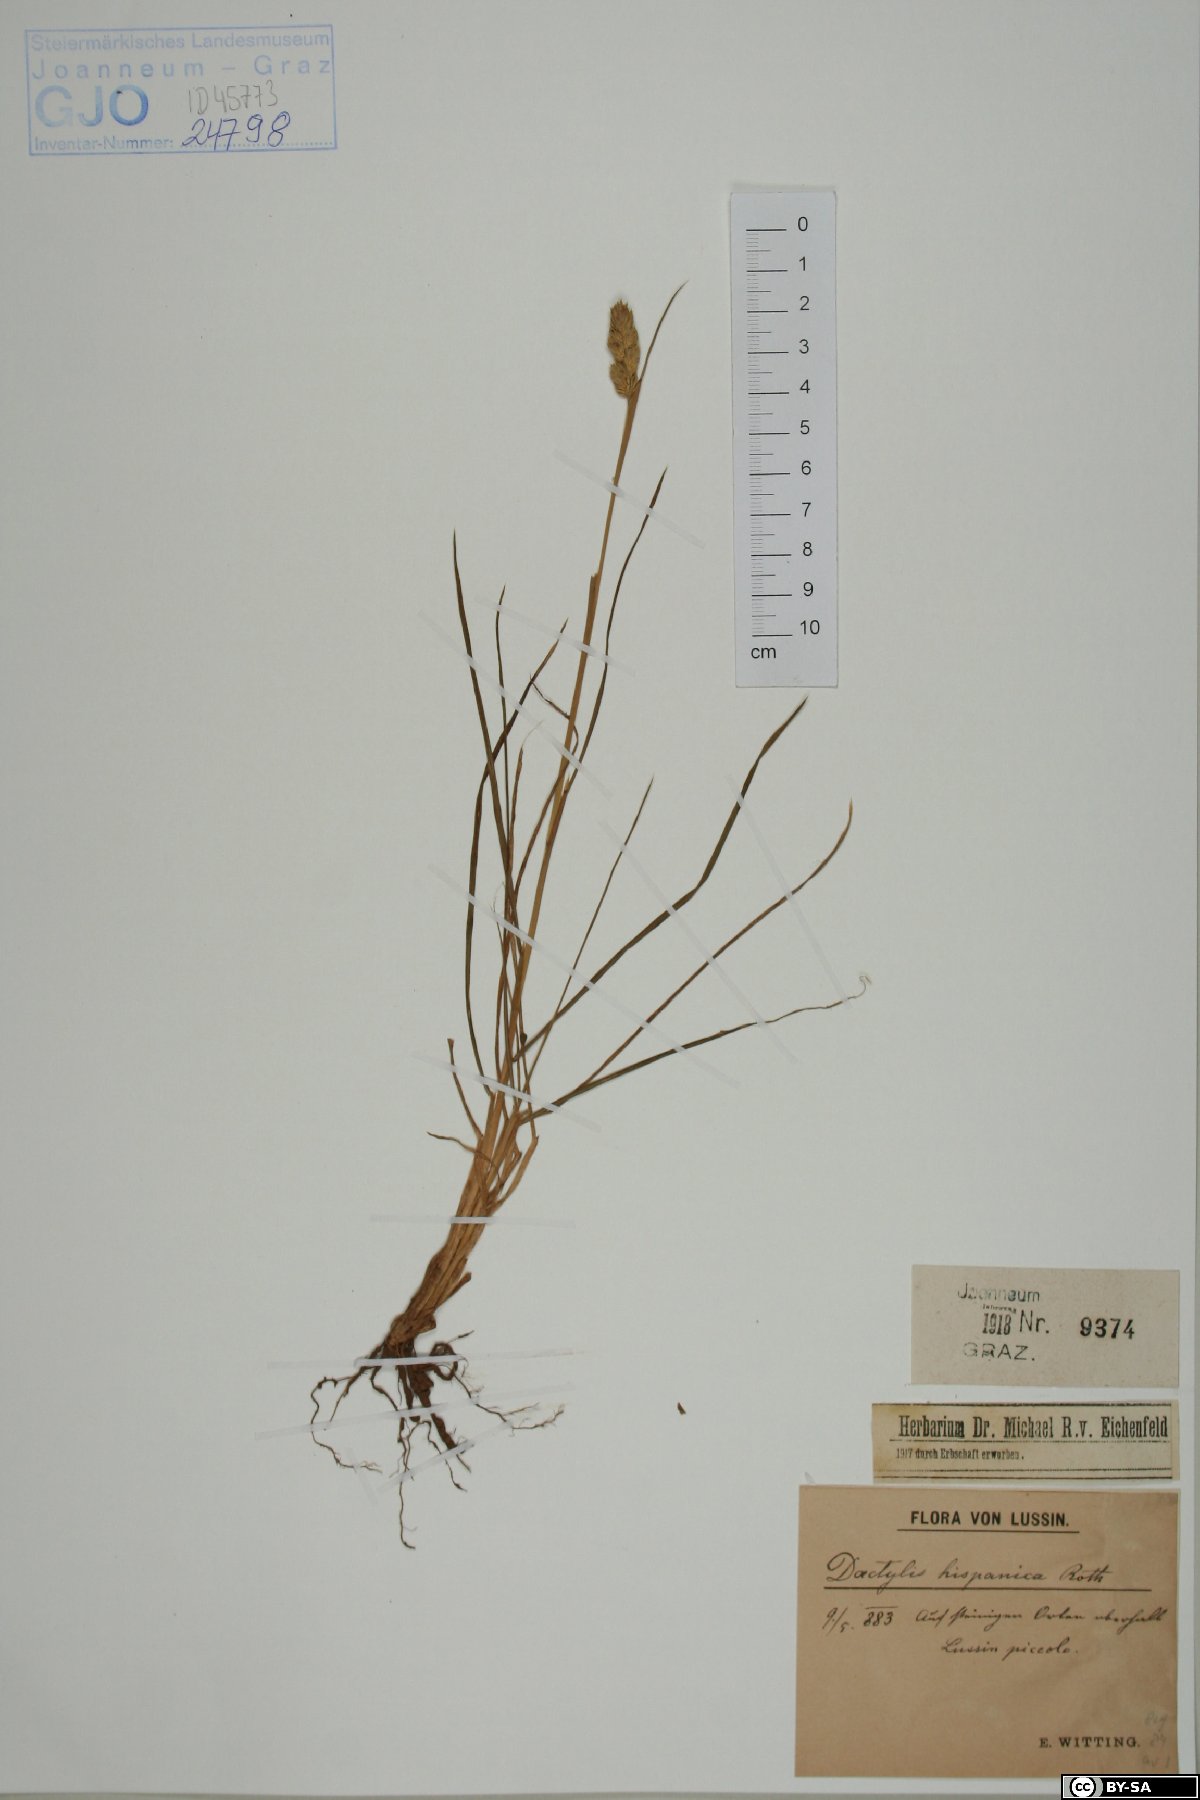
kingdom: Plantae
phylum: Tracheophyta
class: Liliopsida
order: Poales
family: Poaceae
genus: Dactylis
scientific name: Dactylis glomerata
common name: Orchardgrass
